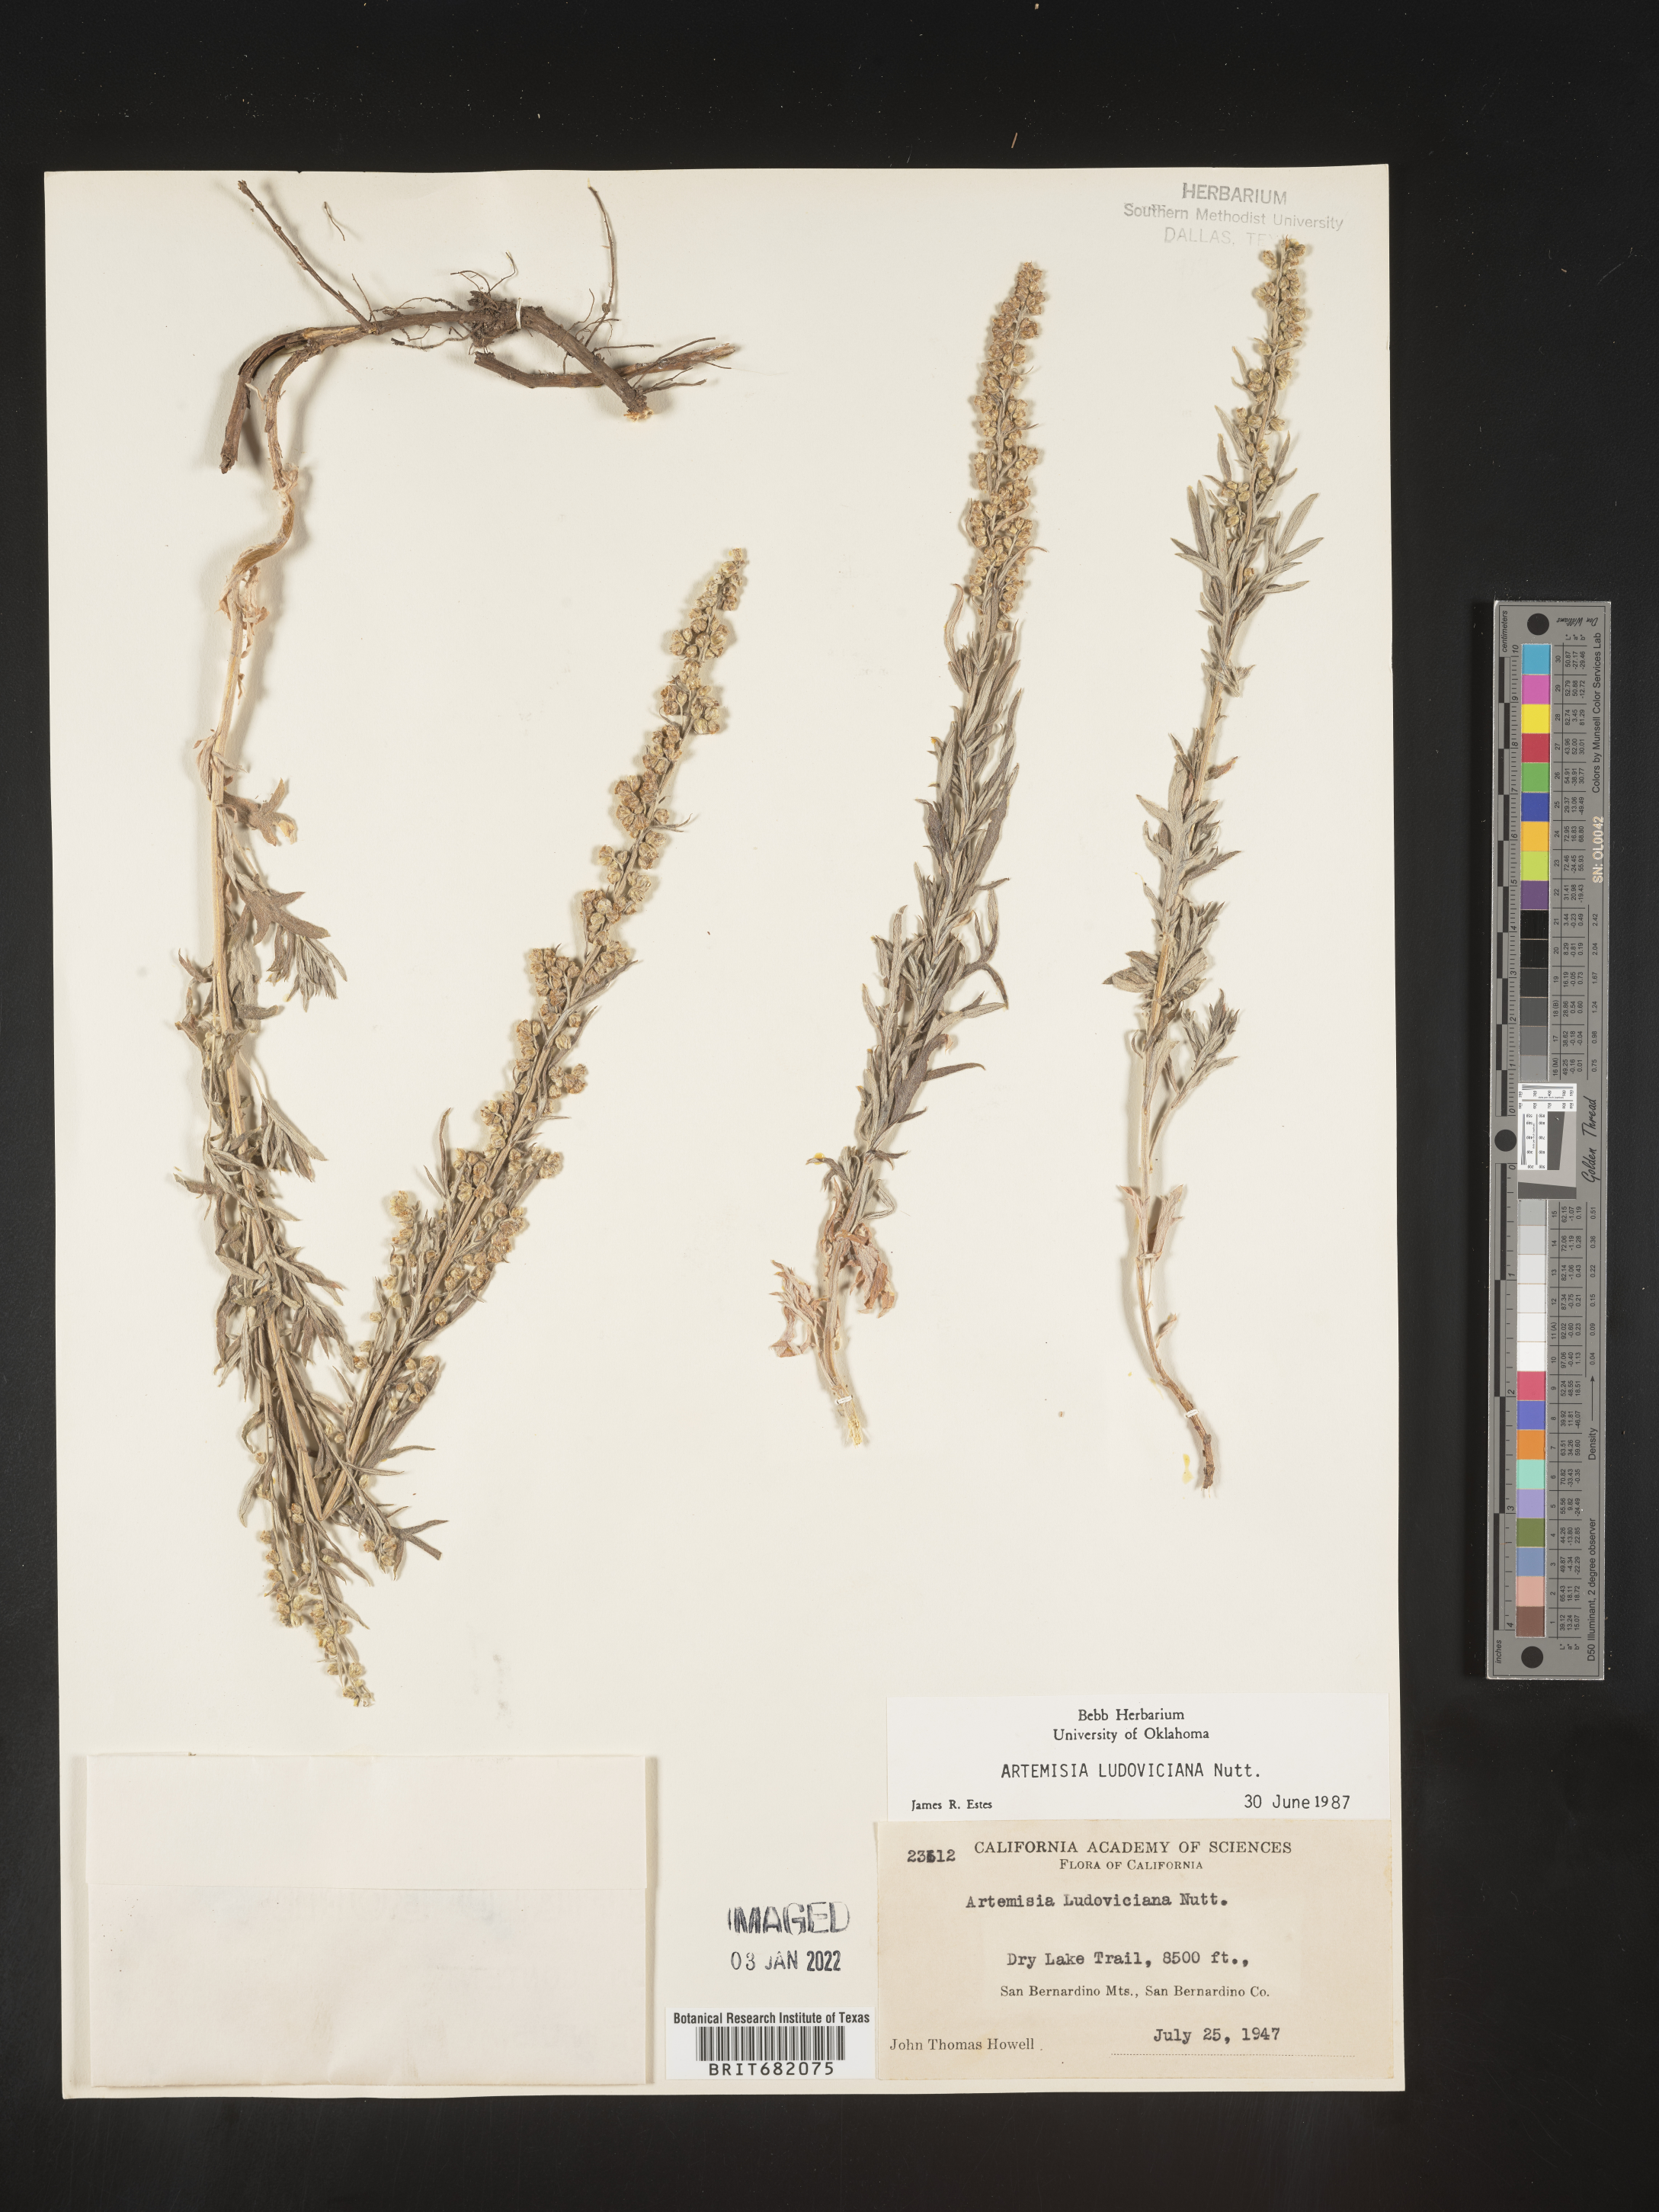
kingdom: Plantae
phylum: Tracheophyta
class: Magnoliopsida
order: Asterales
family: Asteraceae
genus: Artemisia
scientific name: Artemisia ludoviciana
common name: Western mugwort
